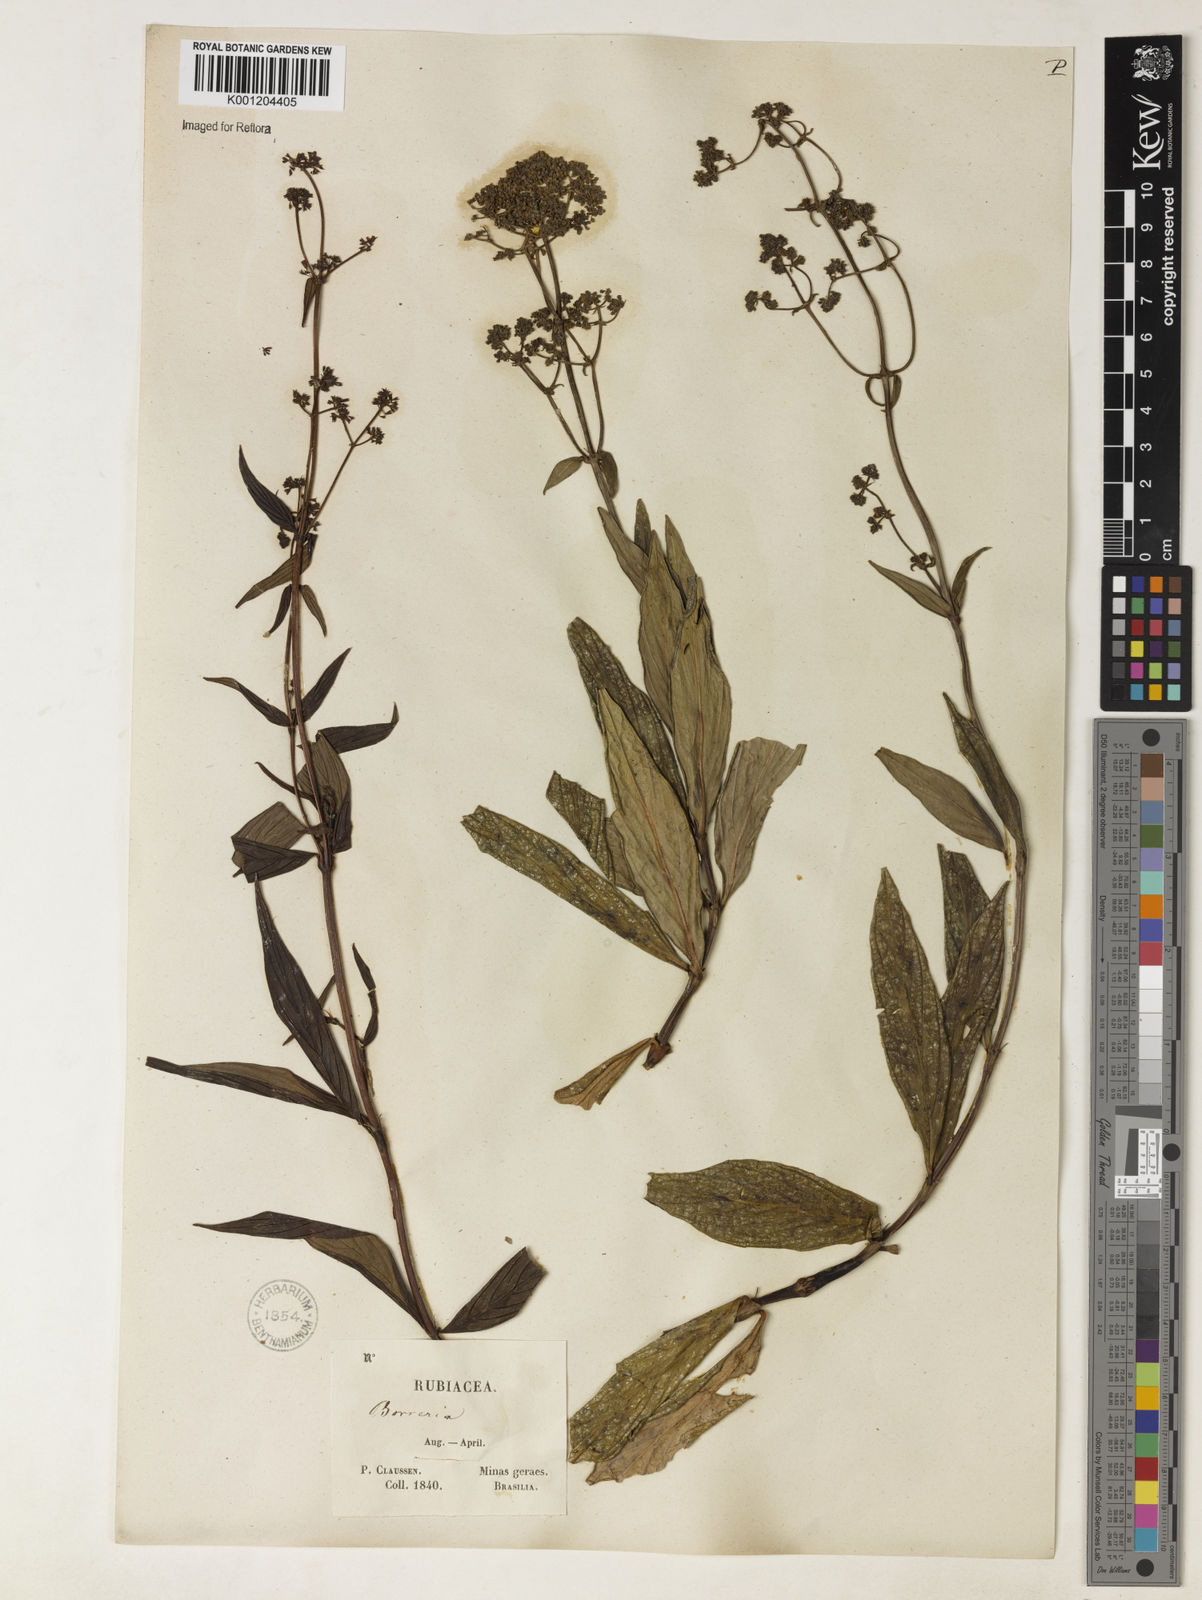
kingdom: Plantae
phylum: Tracheophyta
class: Magnoliopsida
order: Gentianales
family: Rubiaceae
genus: Emmeorhiza
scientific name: Emmeorhiza
